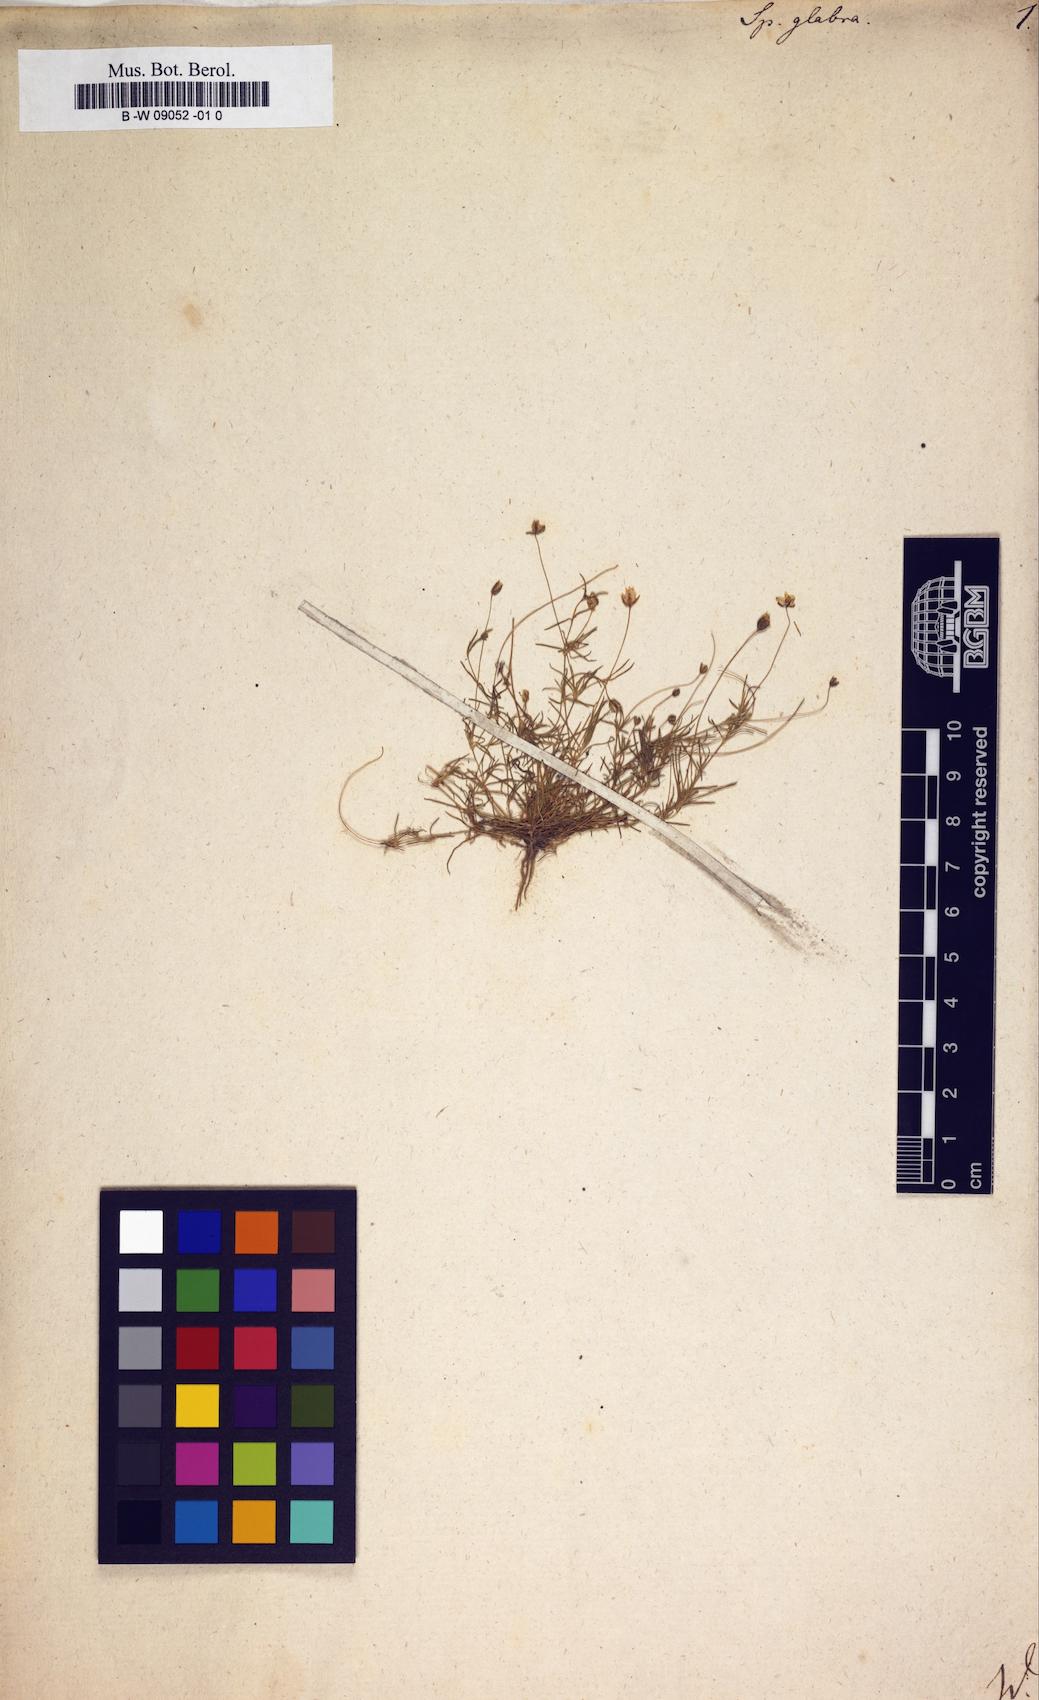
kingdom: Plantae
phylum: Tracheophyta
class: Magnoliopsida
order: Caryophyllales
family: Caryophyllaceae
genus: Sagina
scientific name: Sagina glabra
